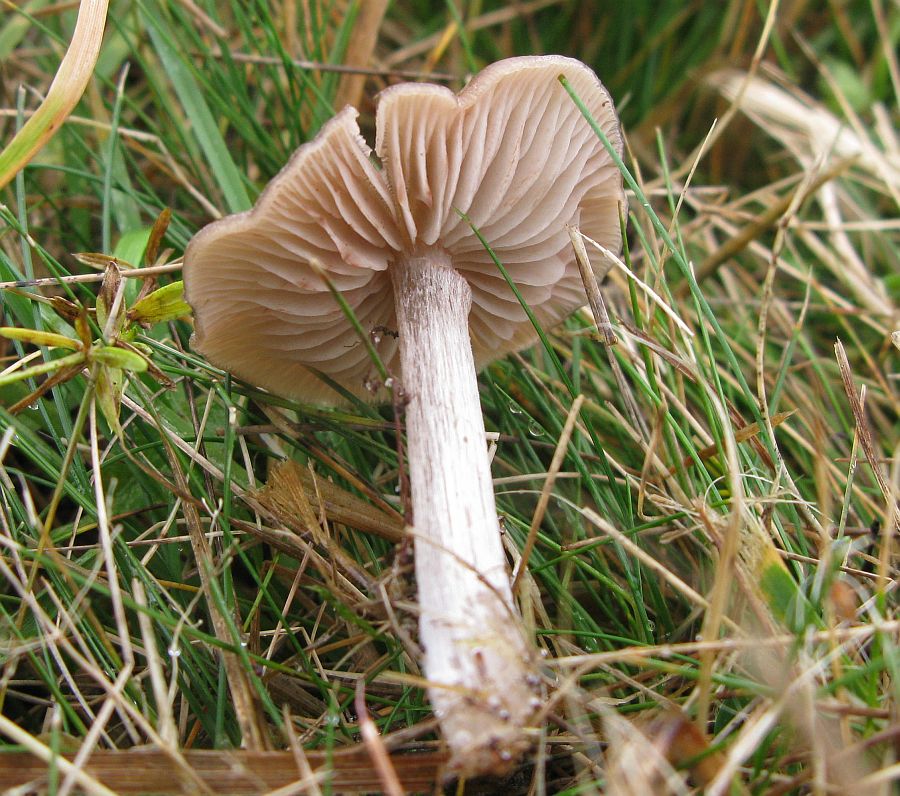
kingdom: Fungi
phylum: Basidiomycota
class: Agaricomycetes
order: Agaricales
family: Entolomataceae
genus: Entoloma
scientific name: Entoloma sericeum
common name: silkeglinsende rødblad
